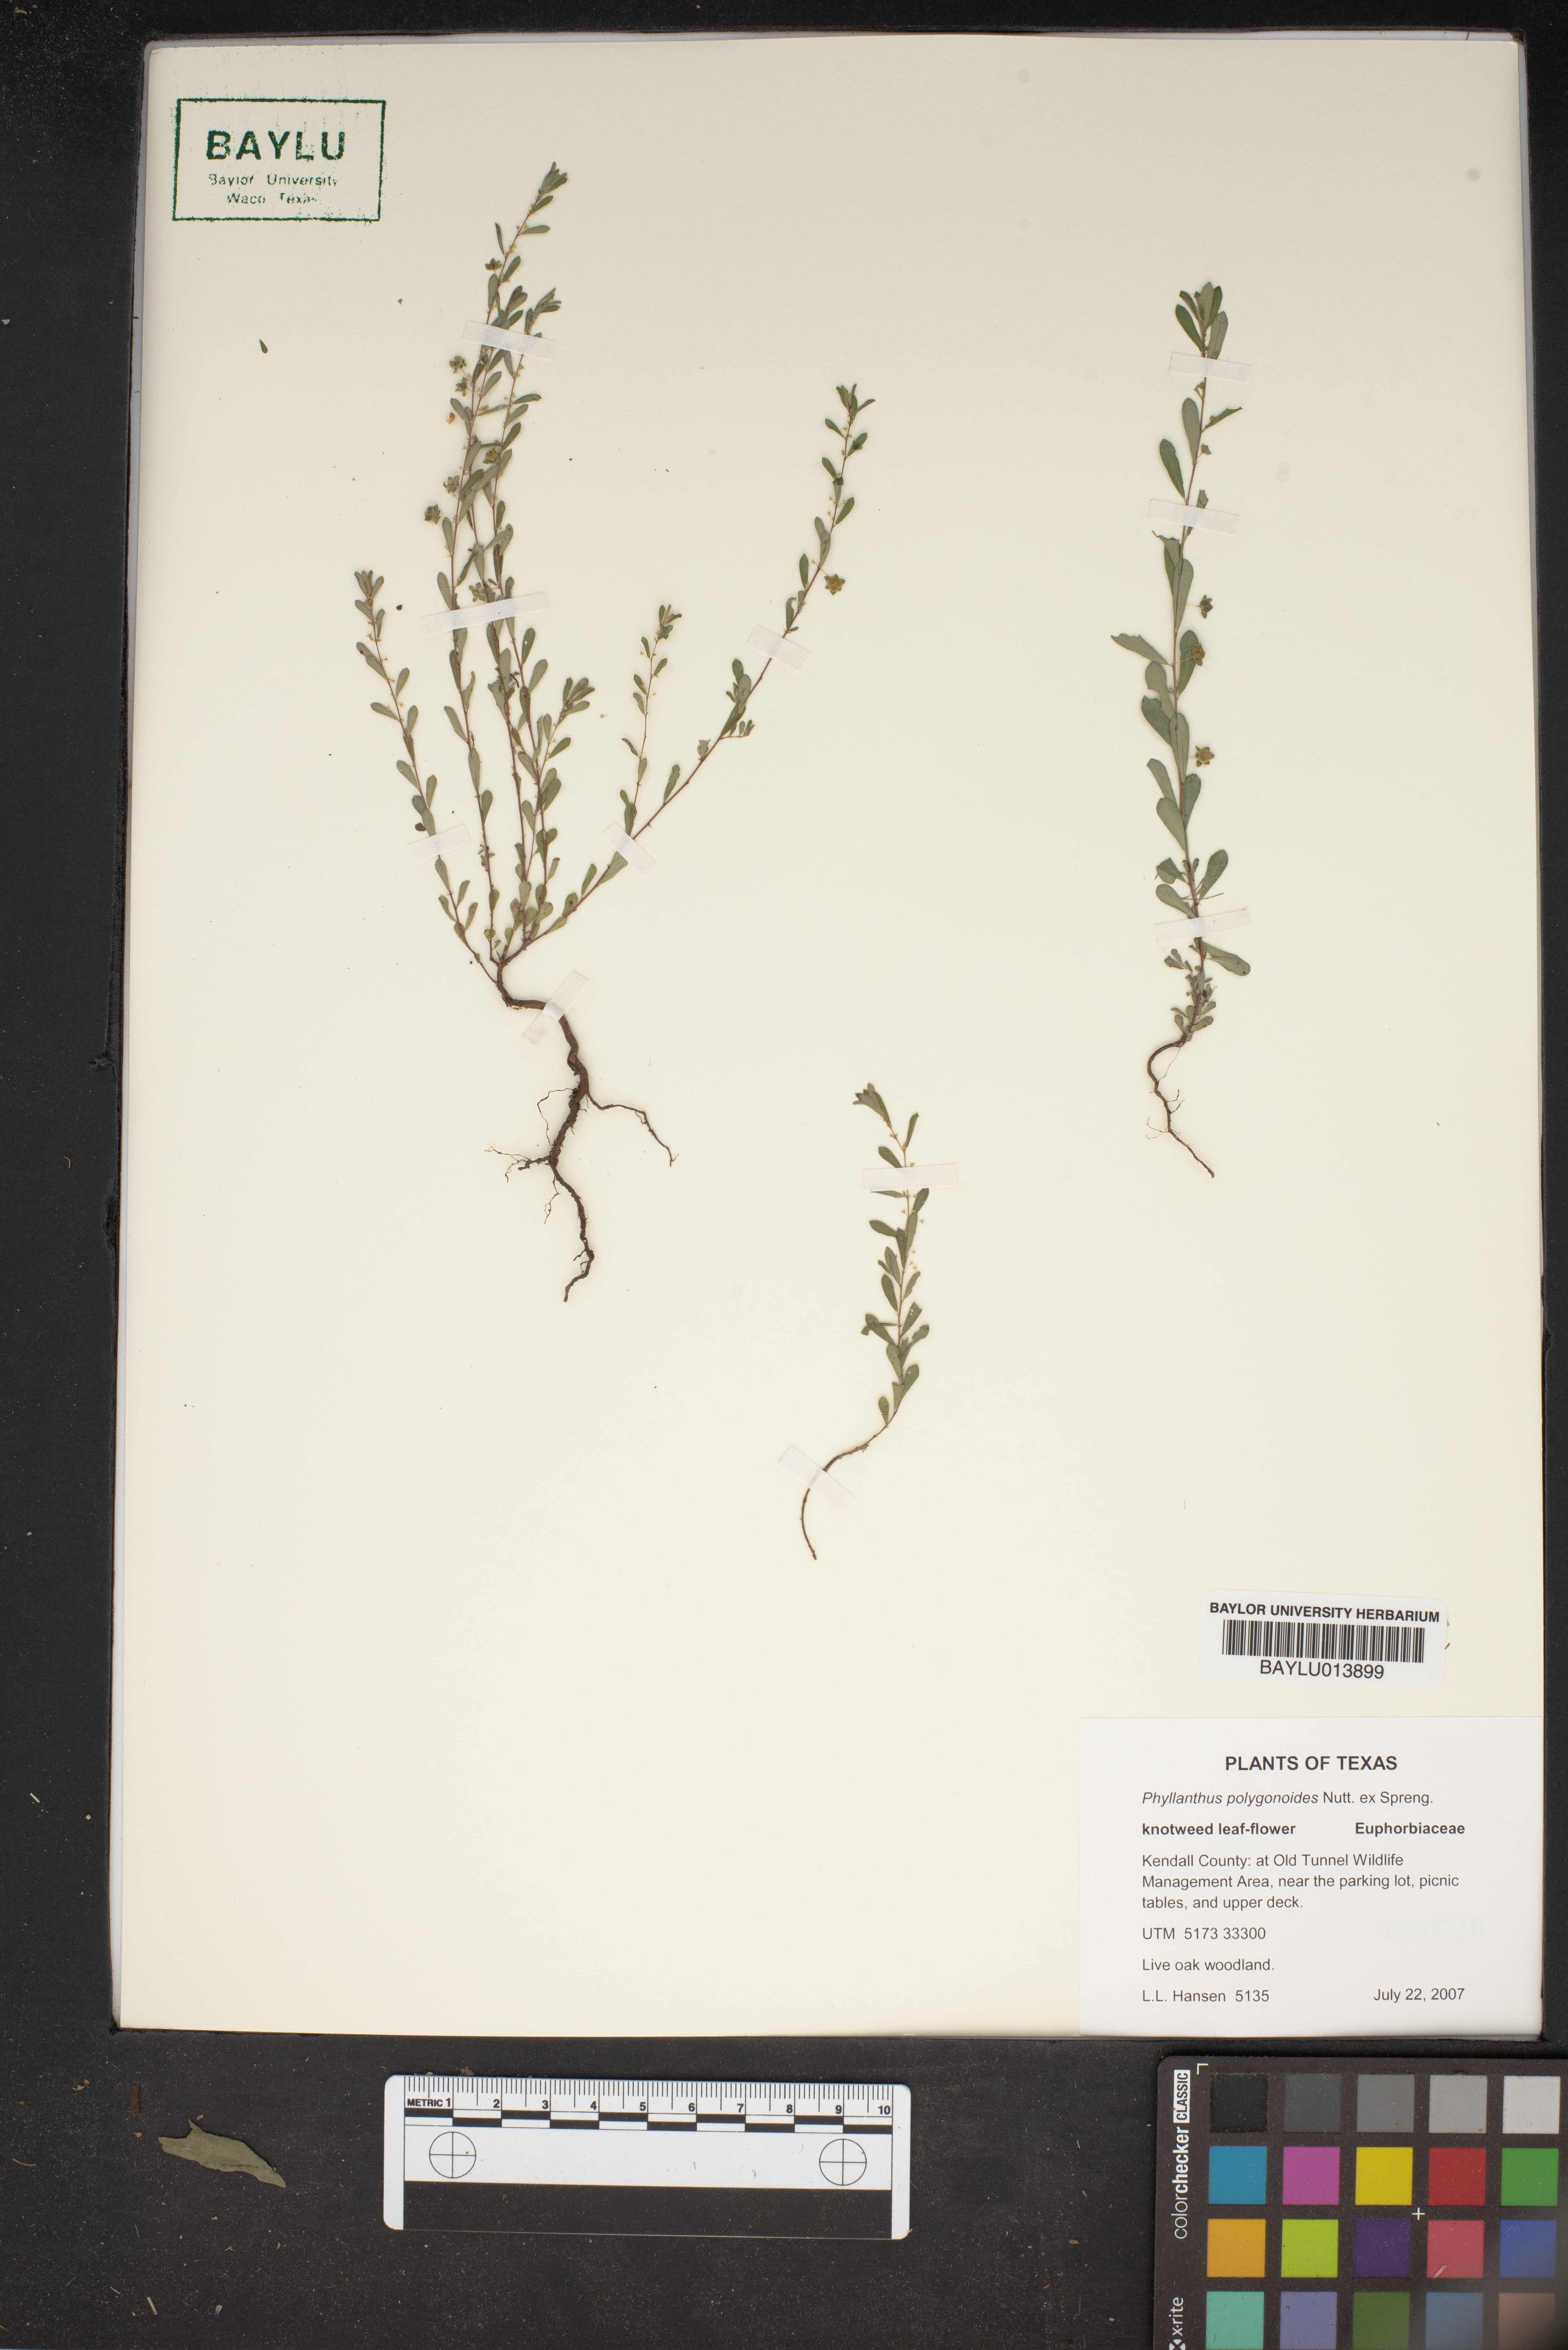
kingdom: Plantae
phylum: Tracheophyta
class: Magnoliopsida
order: Malpighiales
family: Phyllanthaceae
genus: Phyllanthus
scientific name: Phyllanthus polygonoides
